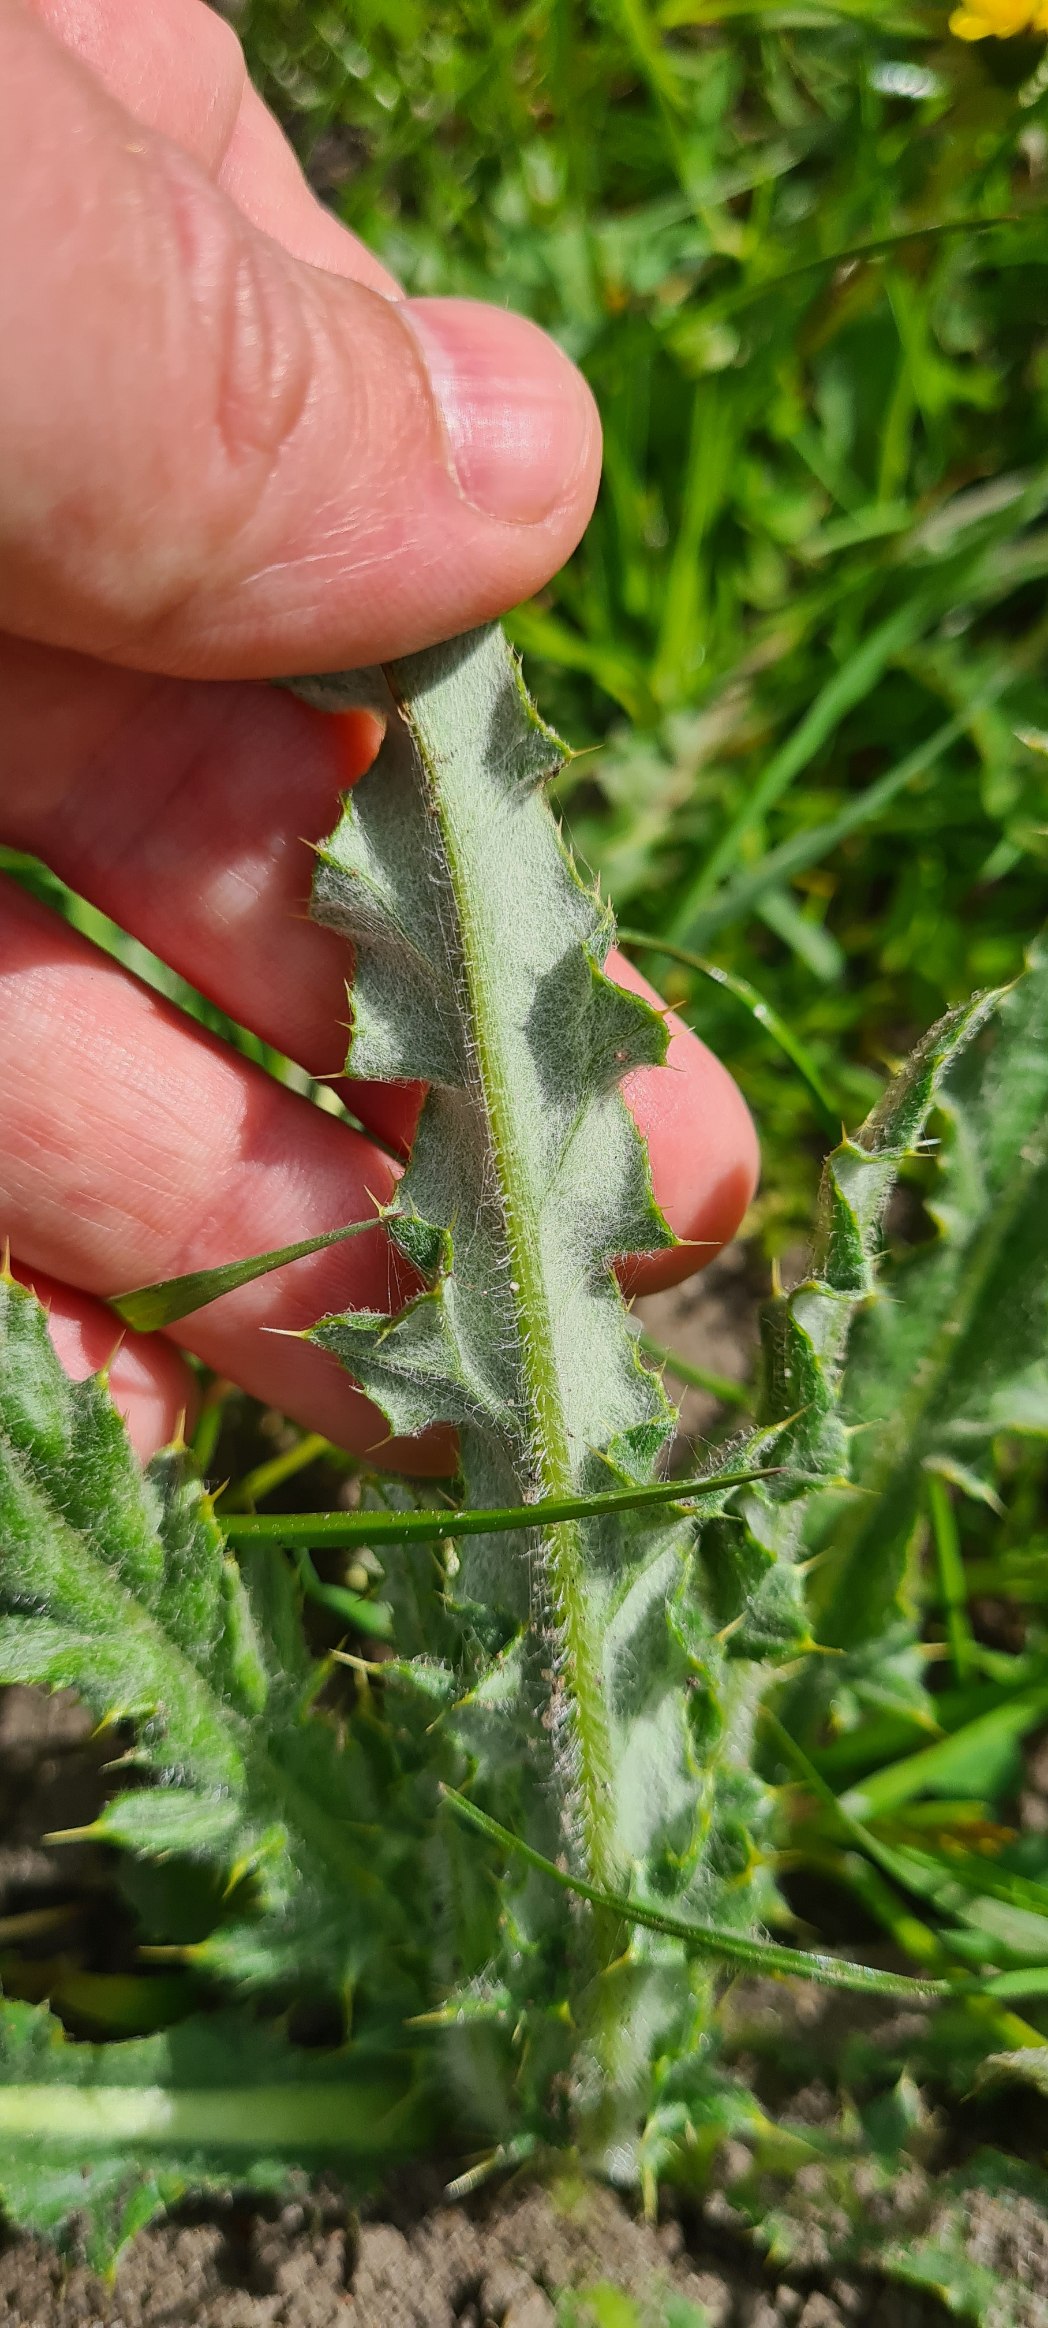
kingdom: Plantae
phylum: Tracheophyta
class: Magnoliopsida
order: Asterales
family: Asteraceae
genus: Cirsium
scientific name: Cirsium arvense
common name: Ager-tidsel
